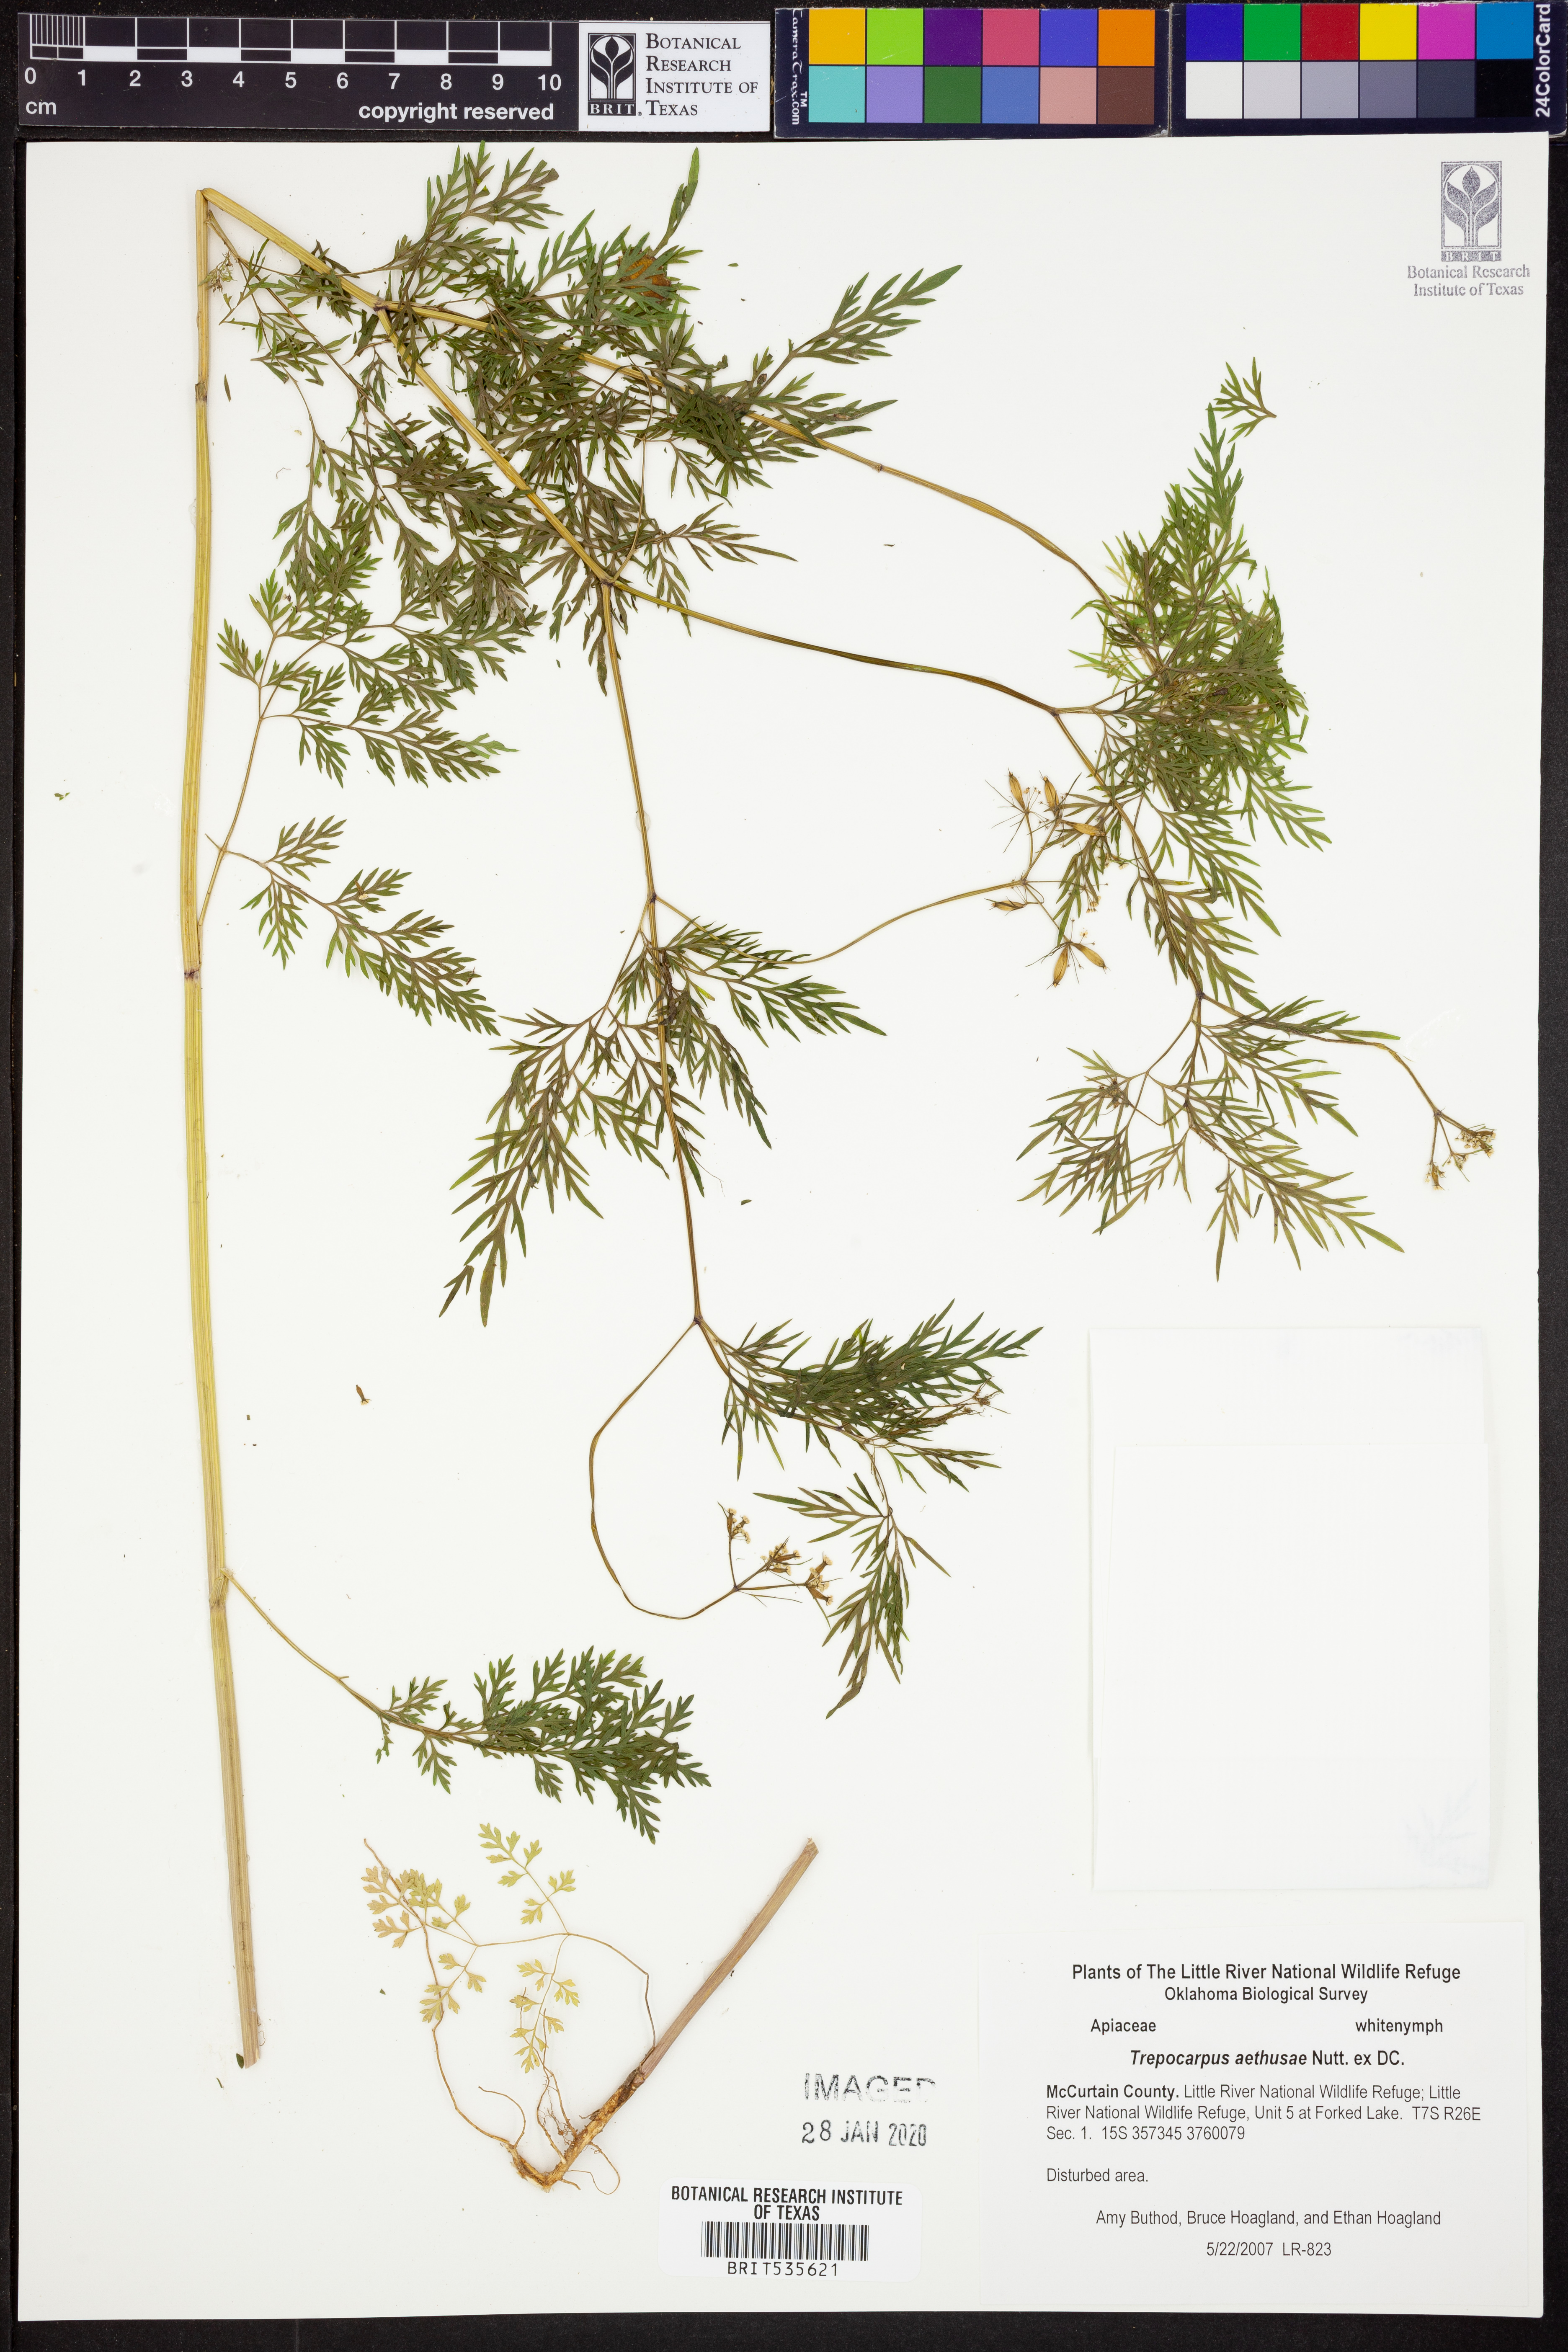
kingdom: Plantae
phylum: Tracheophyta
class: Magnoliopsida
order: Apiales
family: Apiaceae
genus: Trepocarpus
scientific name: Trepocarpus aethusae
